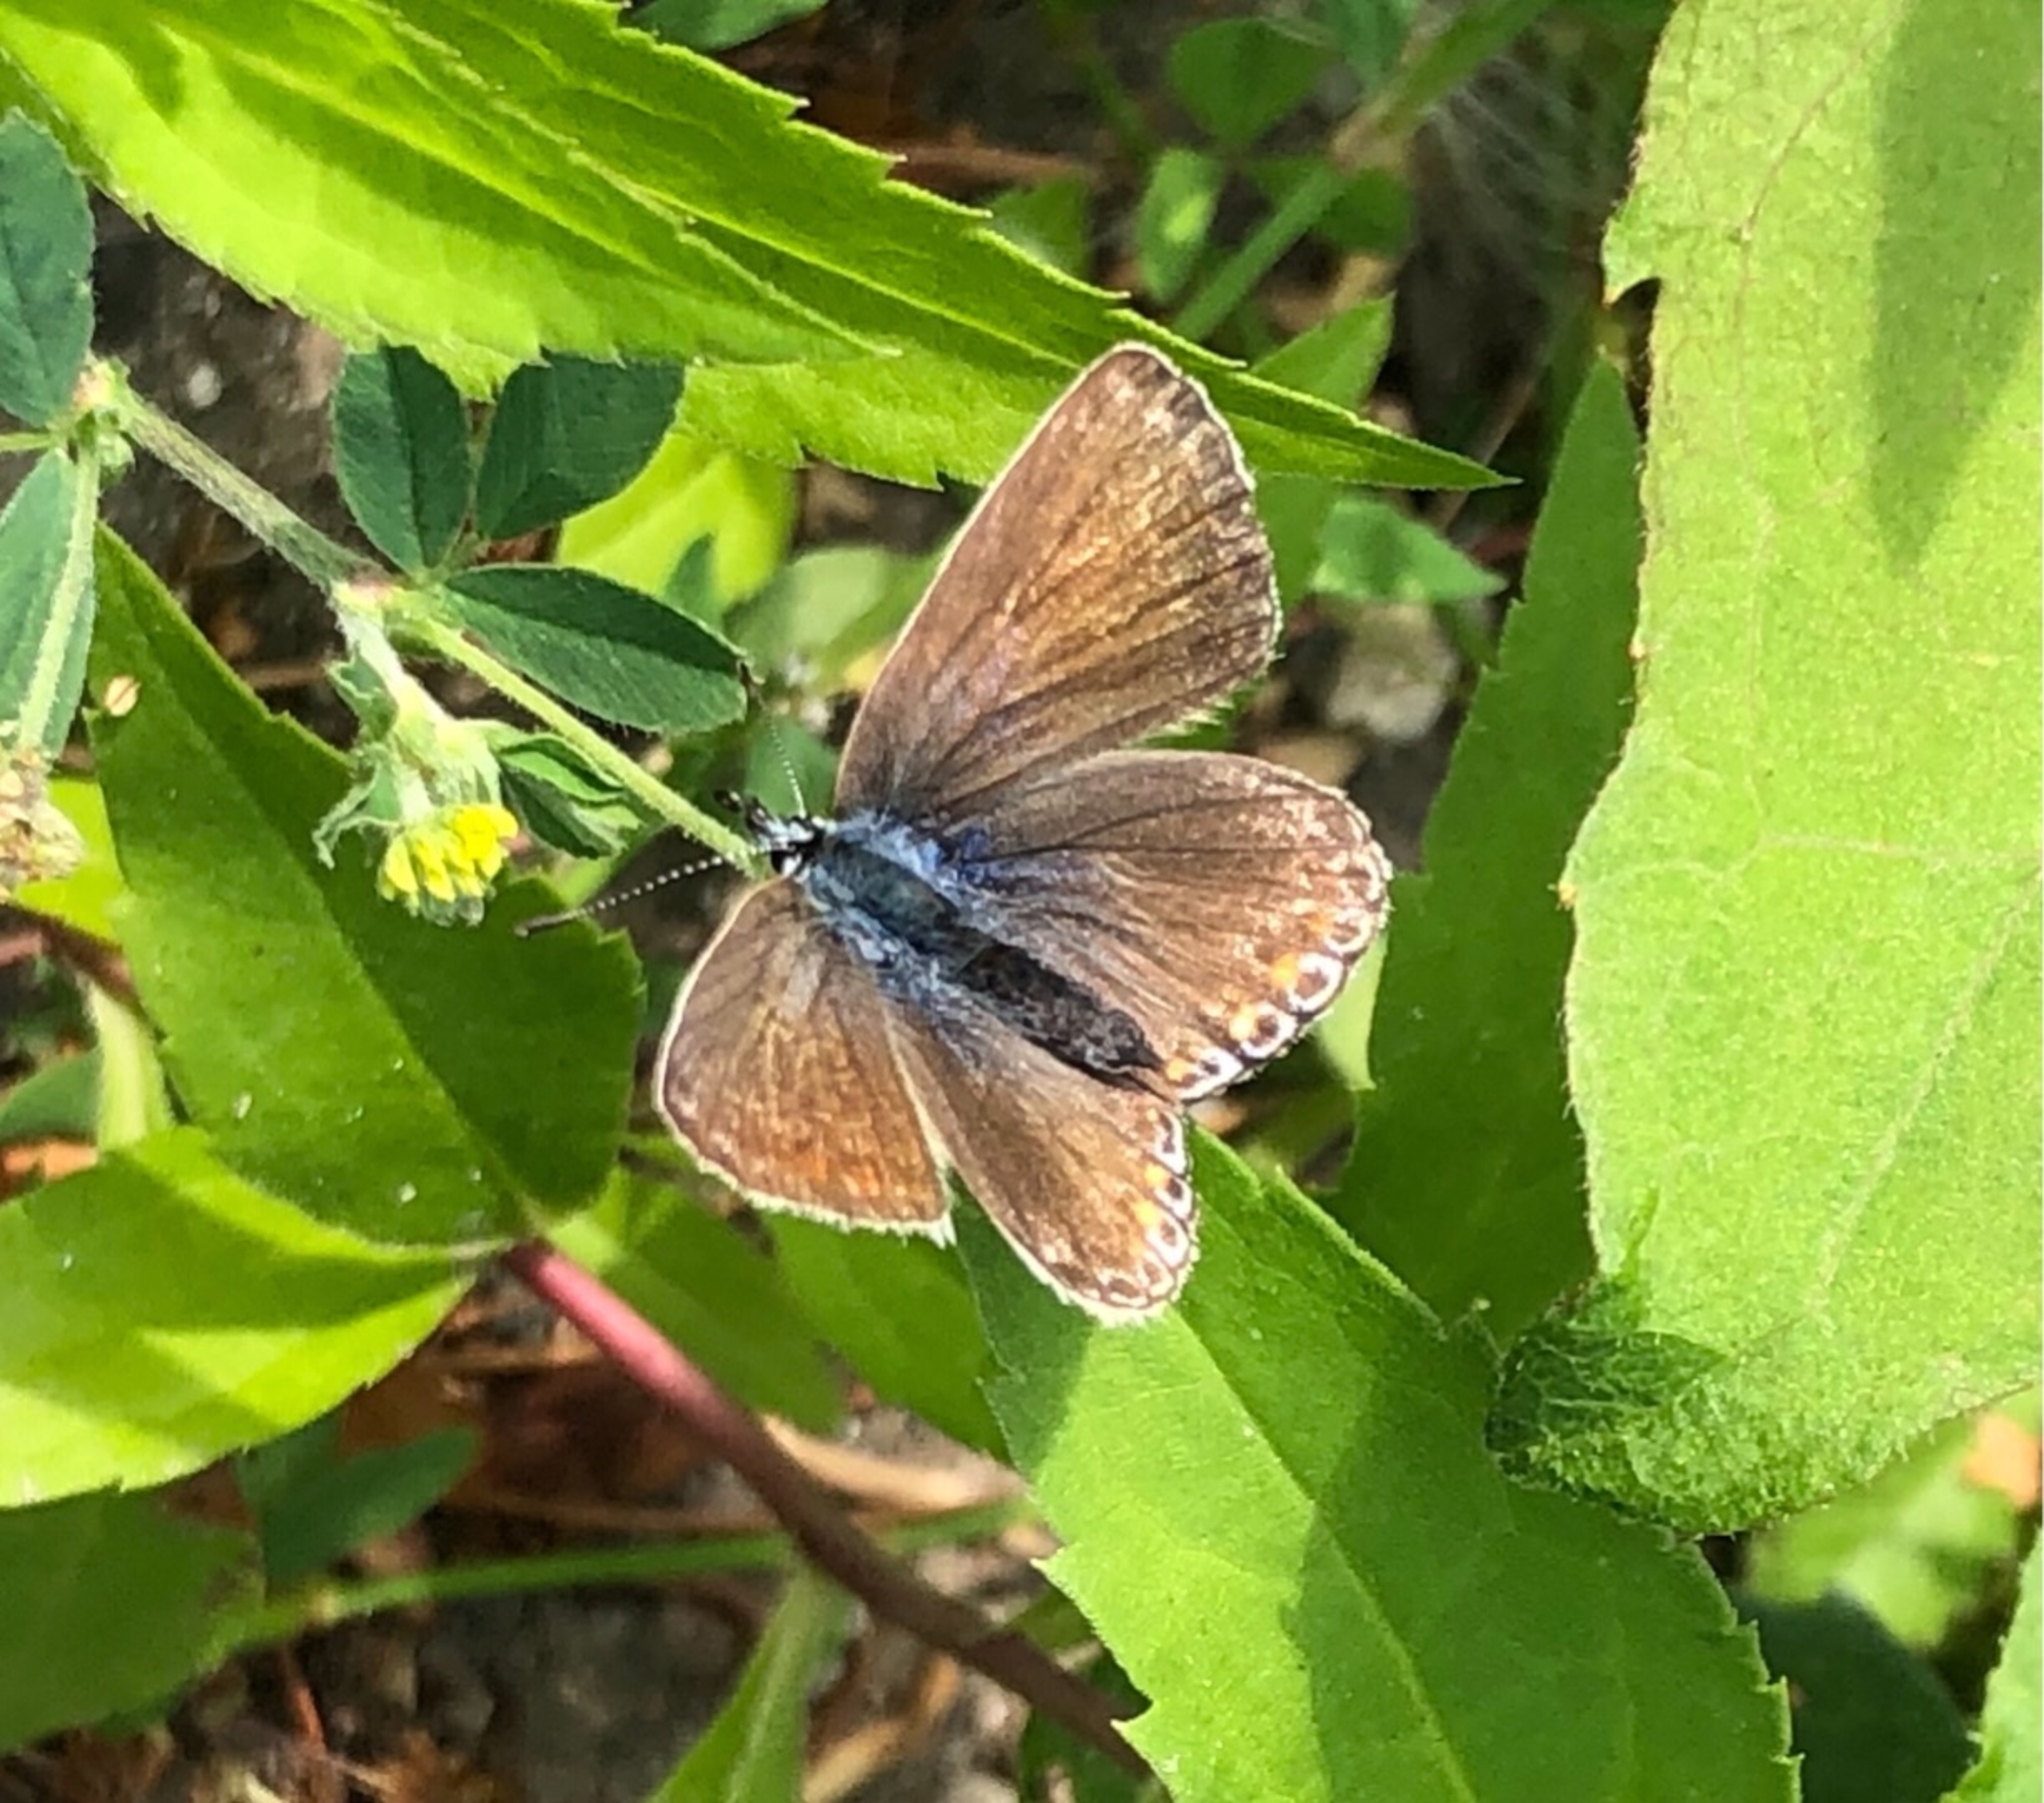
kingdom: Animalia
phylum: Arthropoda
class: Insecta
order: Lepidoptera
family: Lycaenidae
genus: Polyommatus
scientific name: Polyommatus icarus
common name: Almindelig blåfugl
